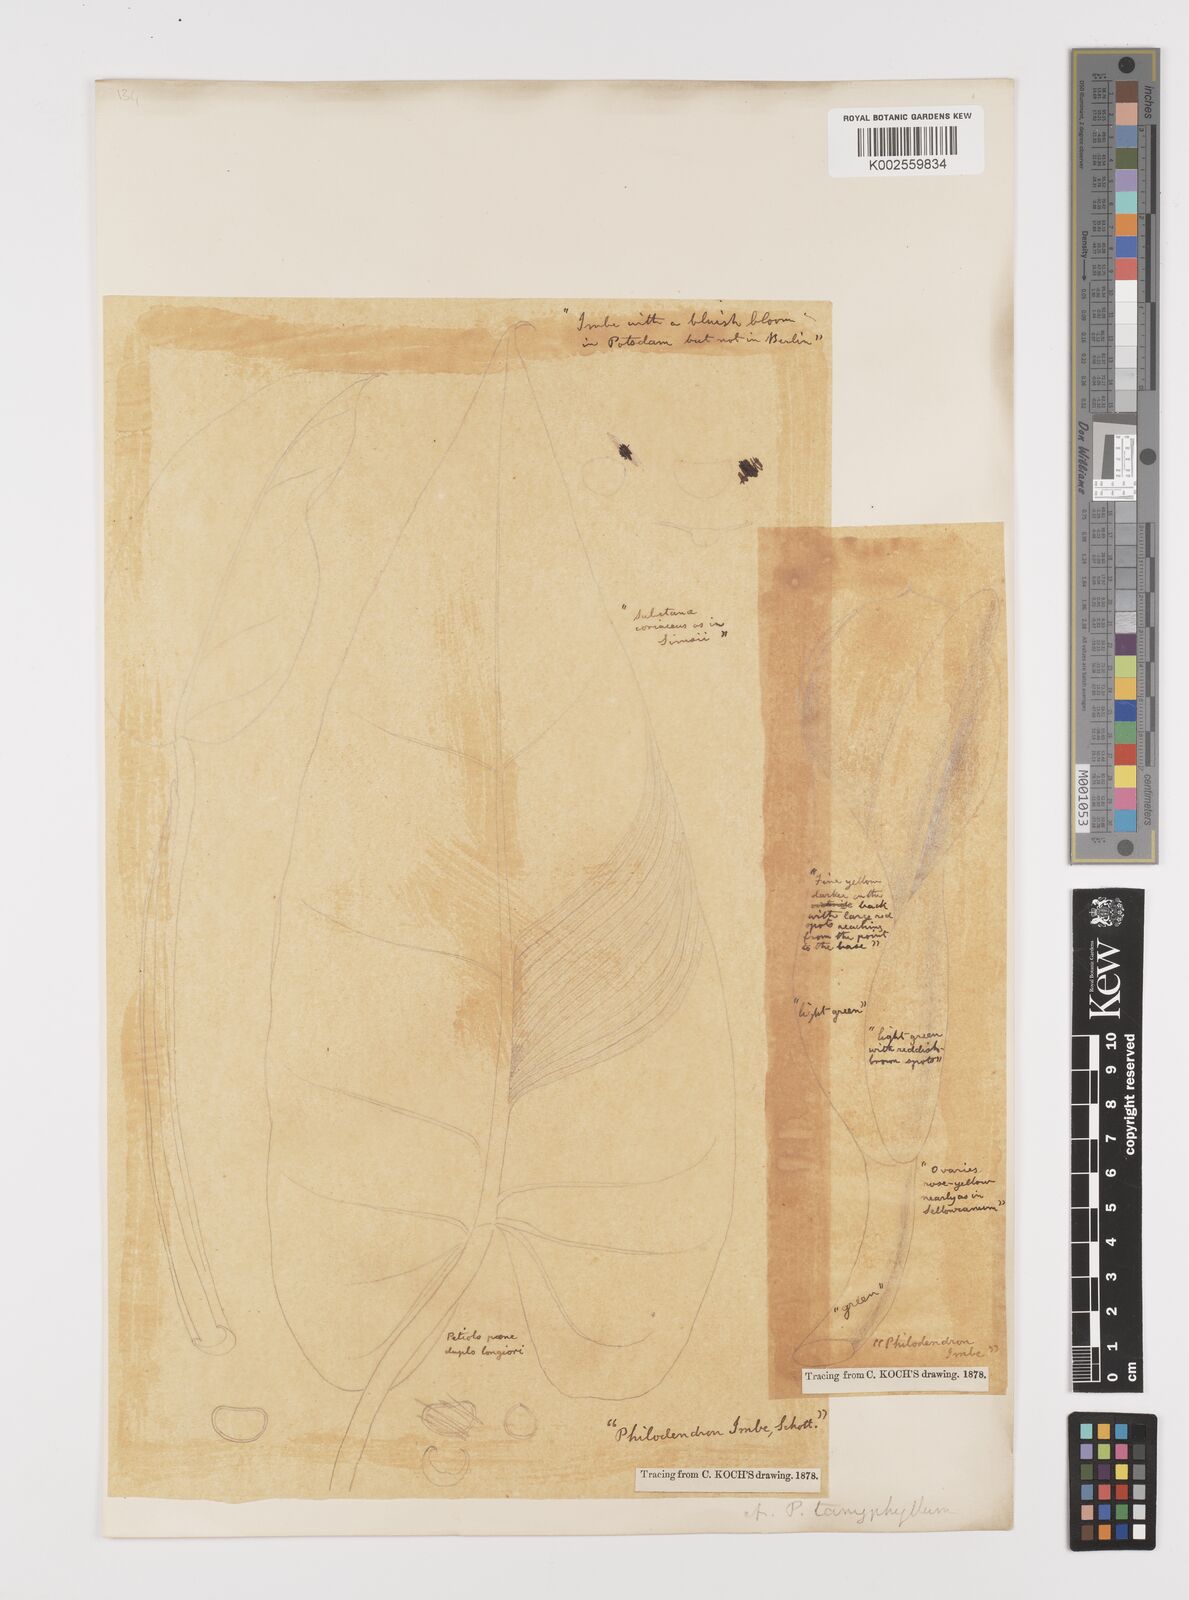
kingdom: Plantae
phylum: Tracheophyta
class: Liliopsida
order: Alismatales
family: Araceae
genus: Philodendron
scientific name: Philodendron sagittifolium
